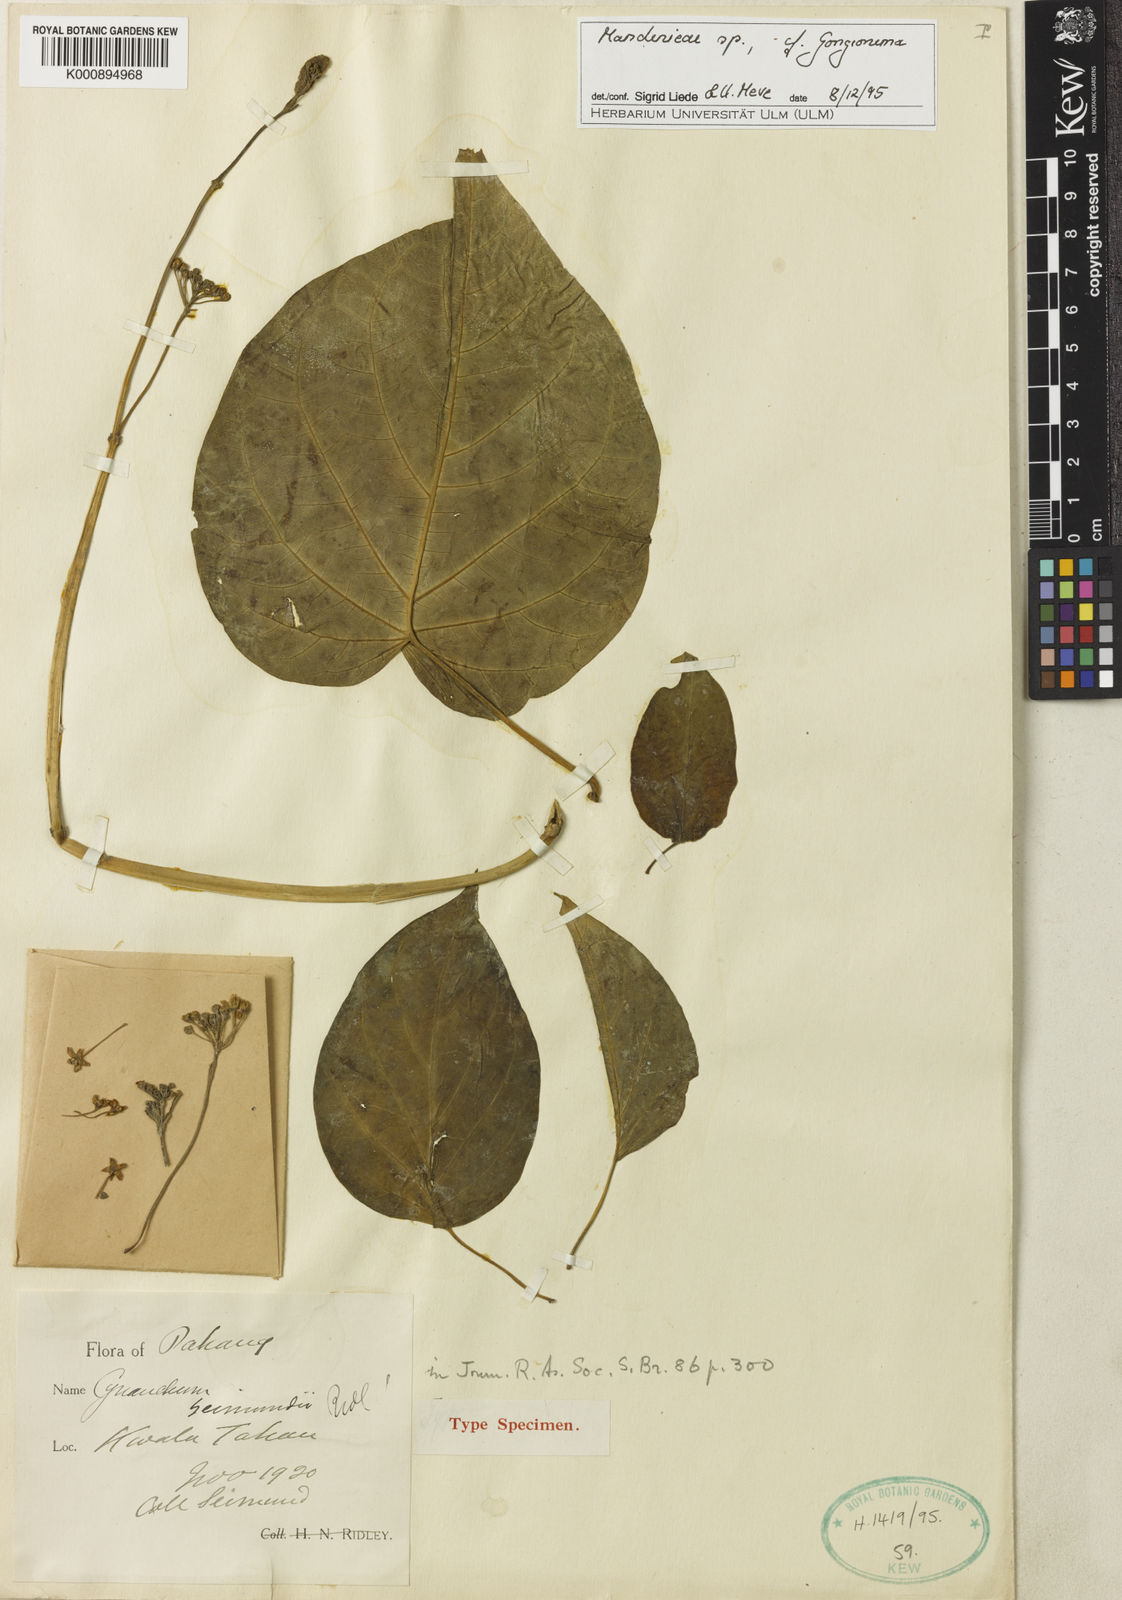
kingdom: Plantae
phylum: Tracheophyta
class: Magnoliopsida
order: Gentianales
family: Apocynaceae
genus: Cosmostigma
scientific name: Cosmostigma cordatum
